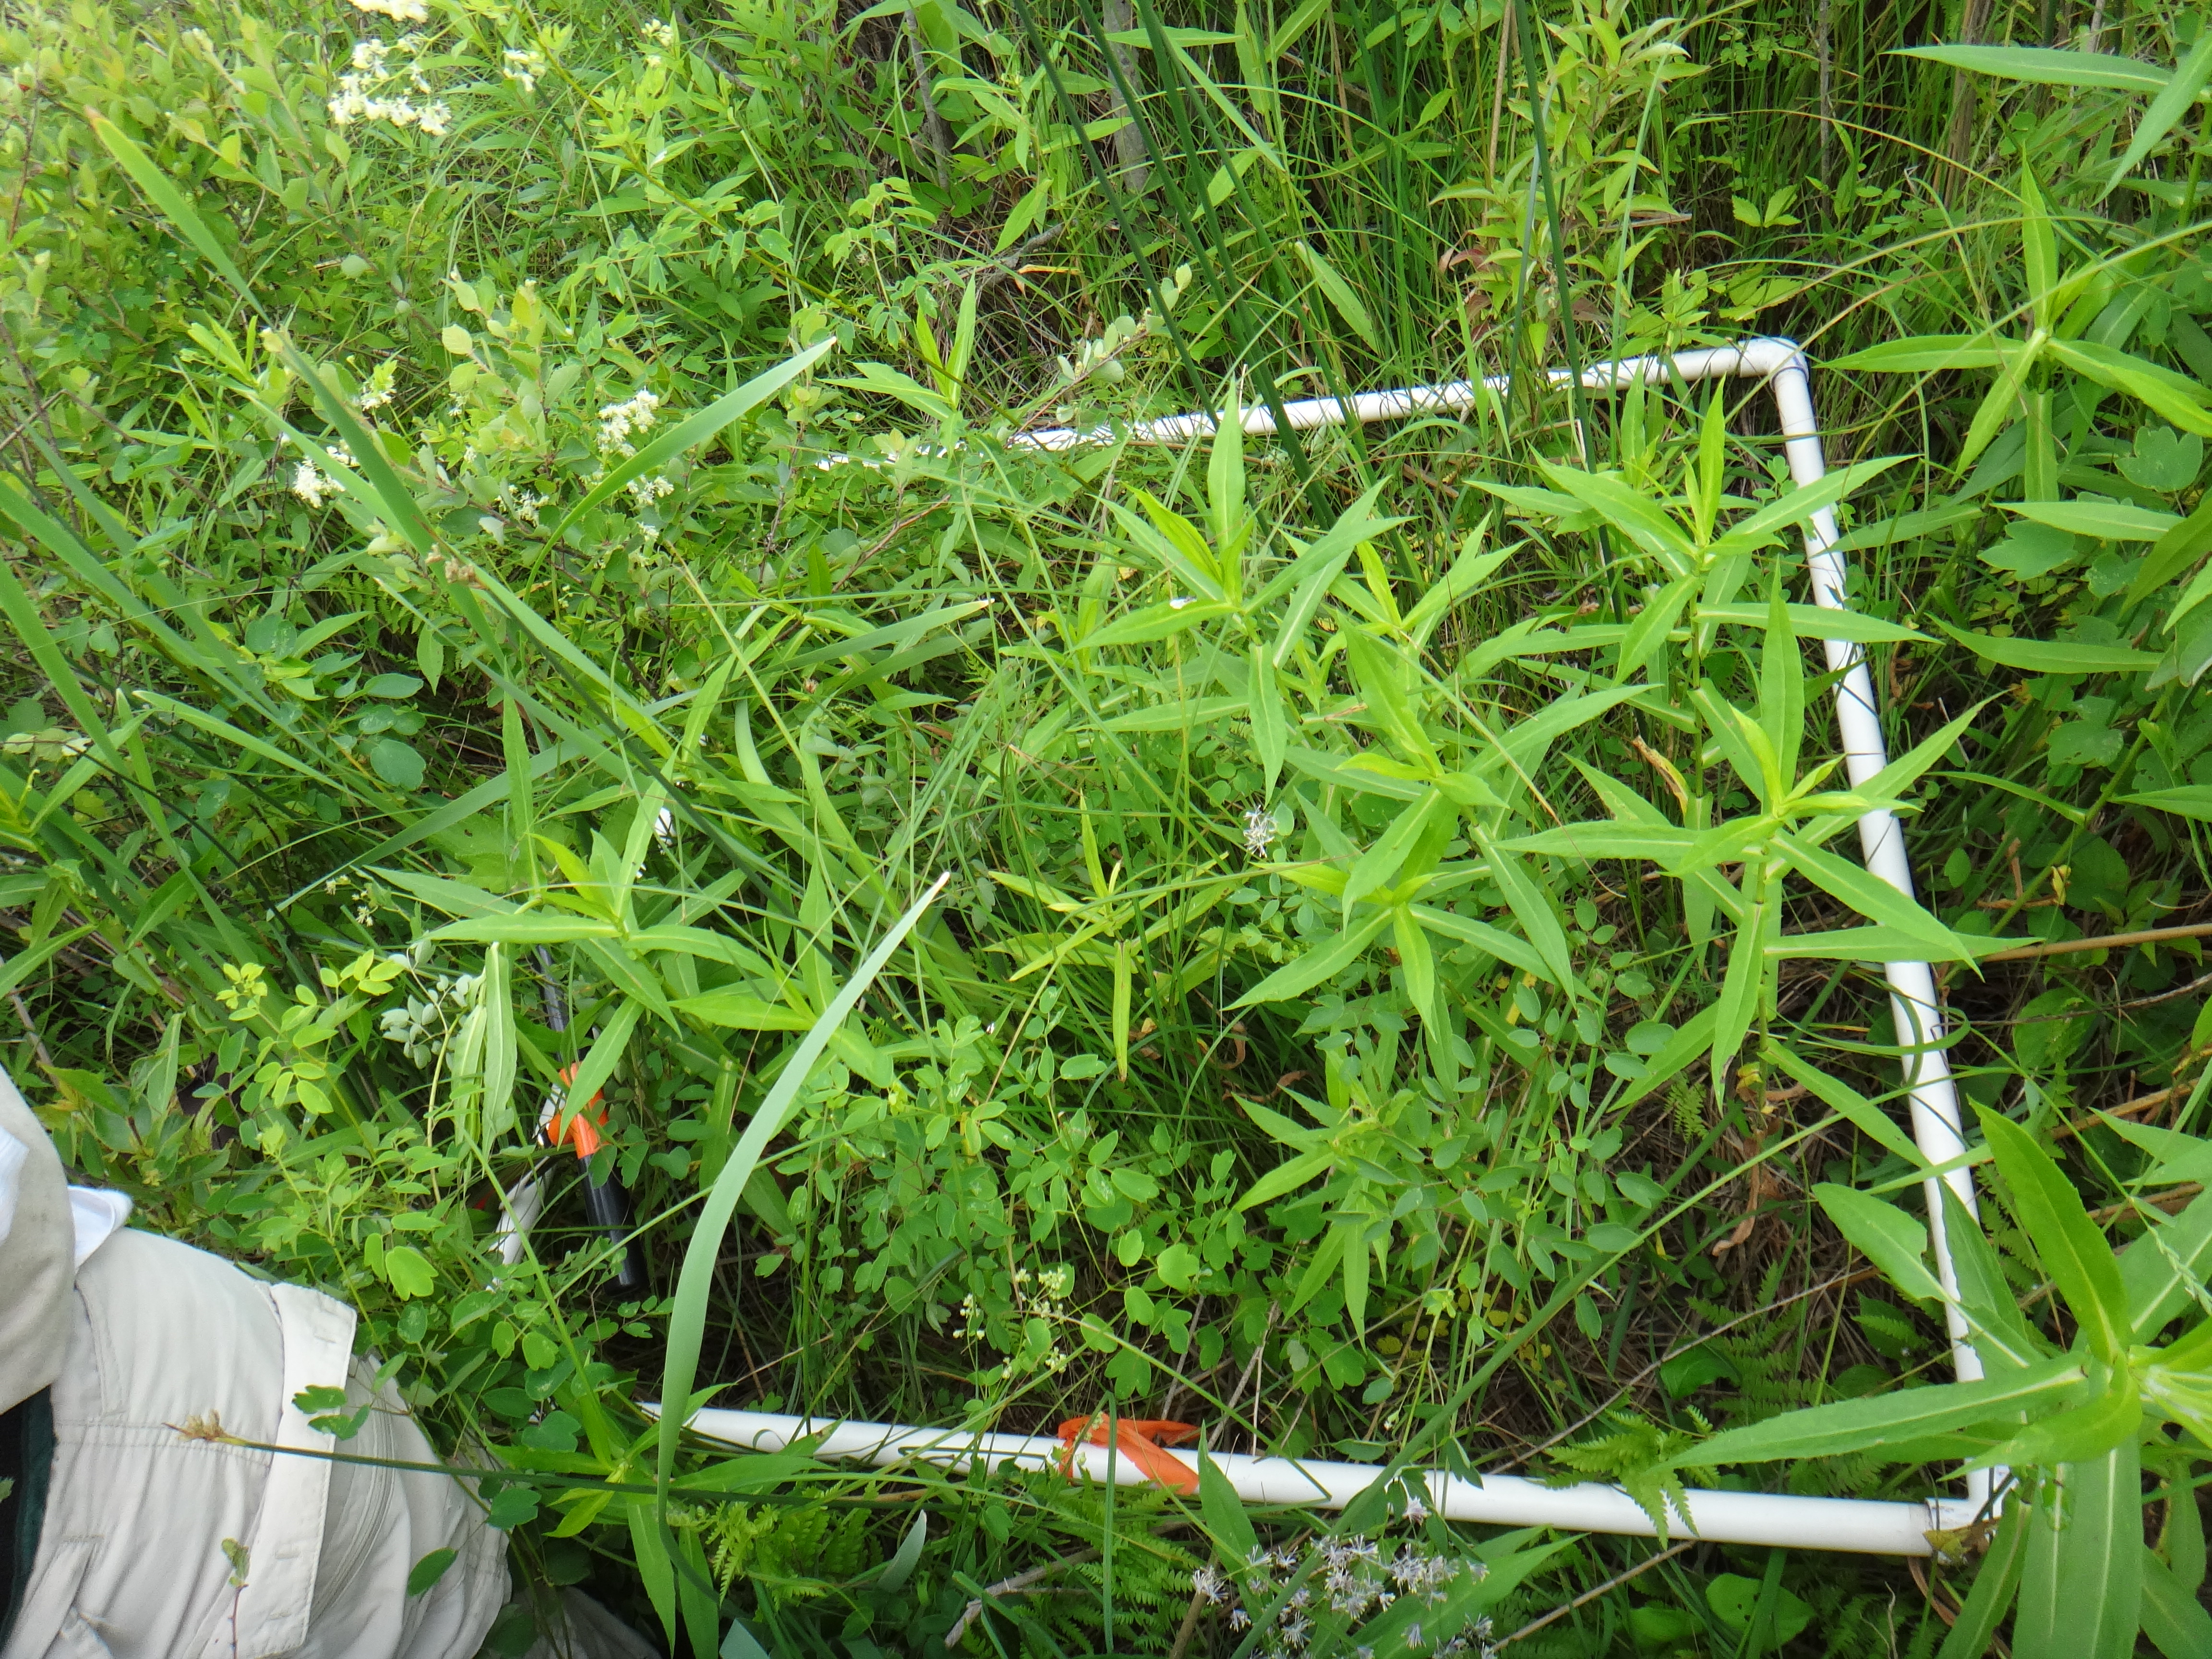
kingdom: Plantae
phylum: Tracheophyta
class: Liliopsida
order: Poales
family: Cyperaceae
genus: Carex
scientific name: Carex stricta
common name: Hummock sedge
